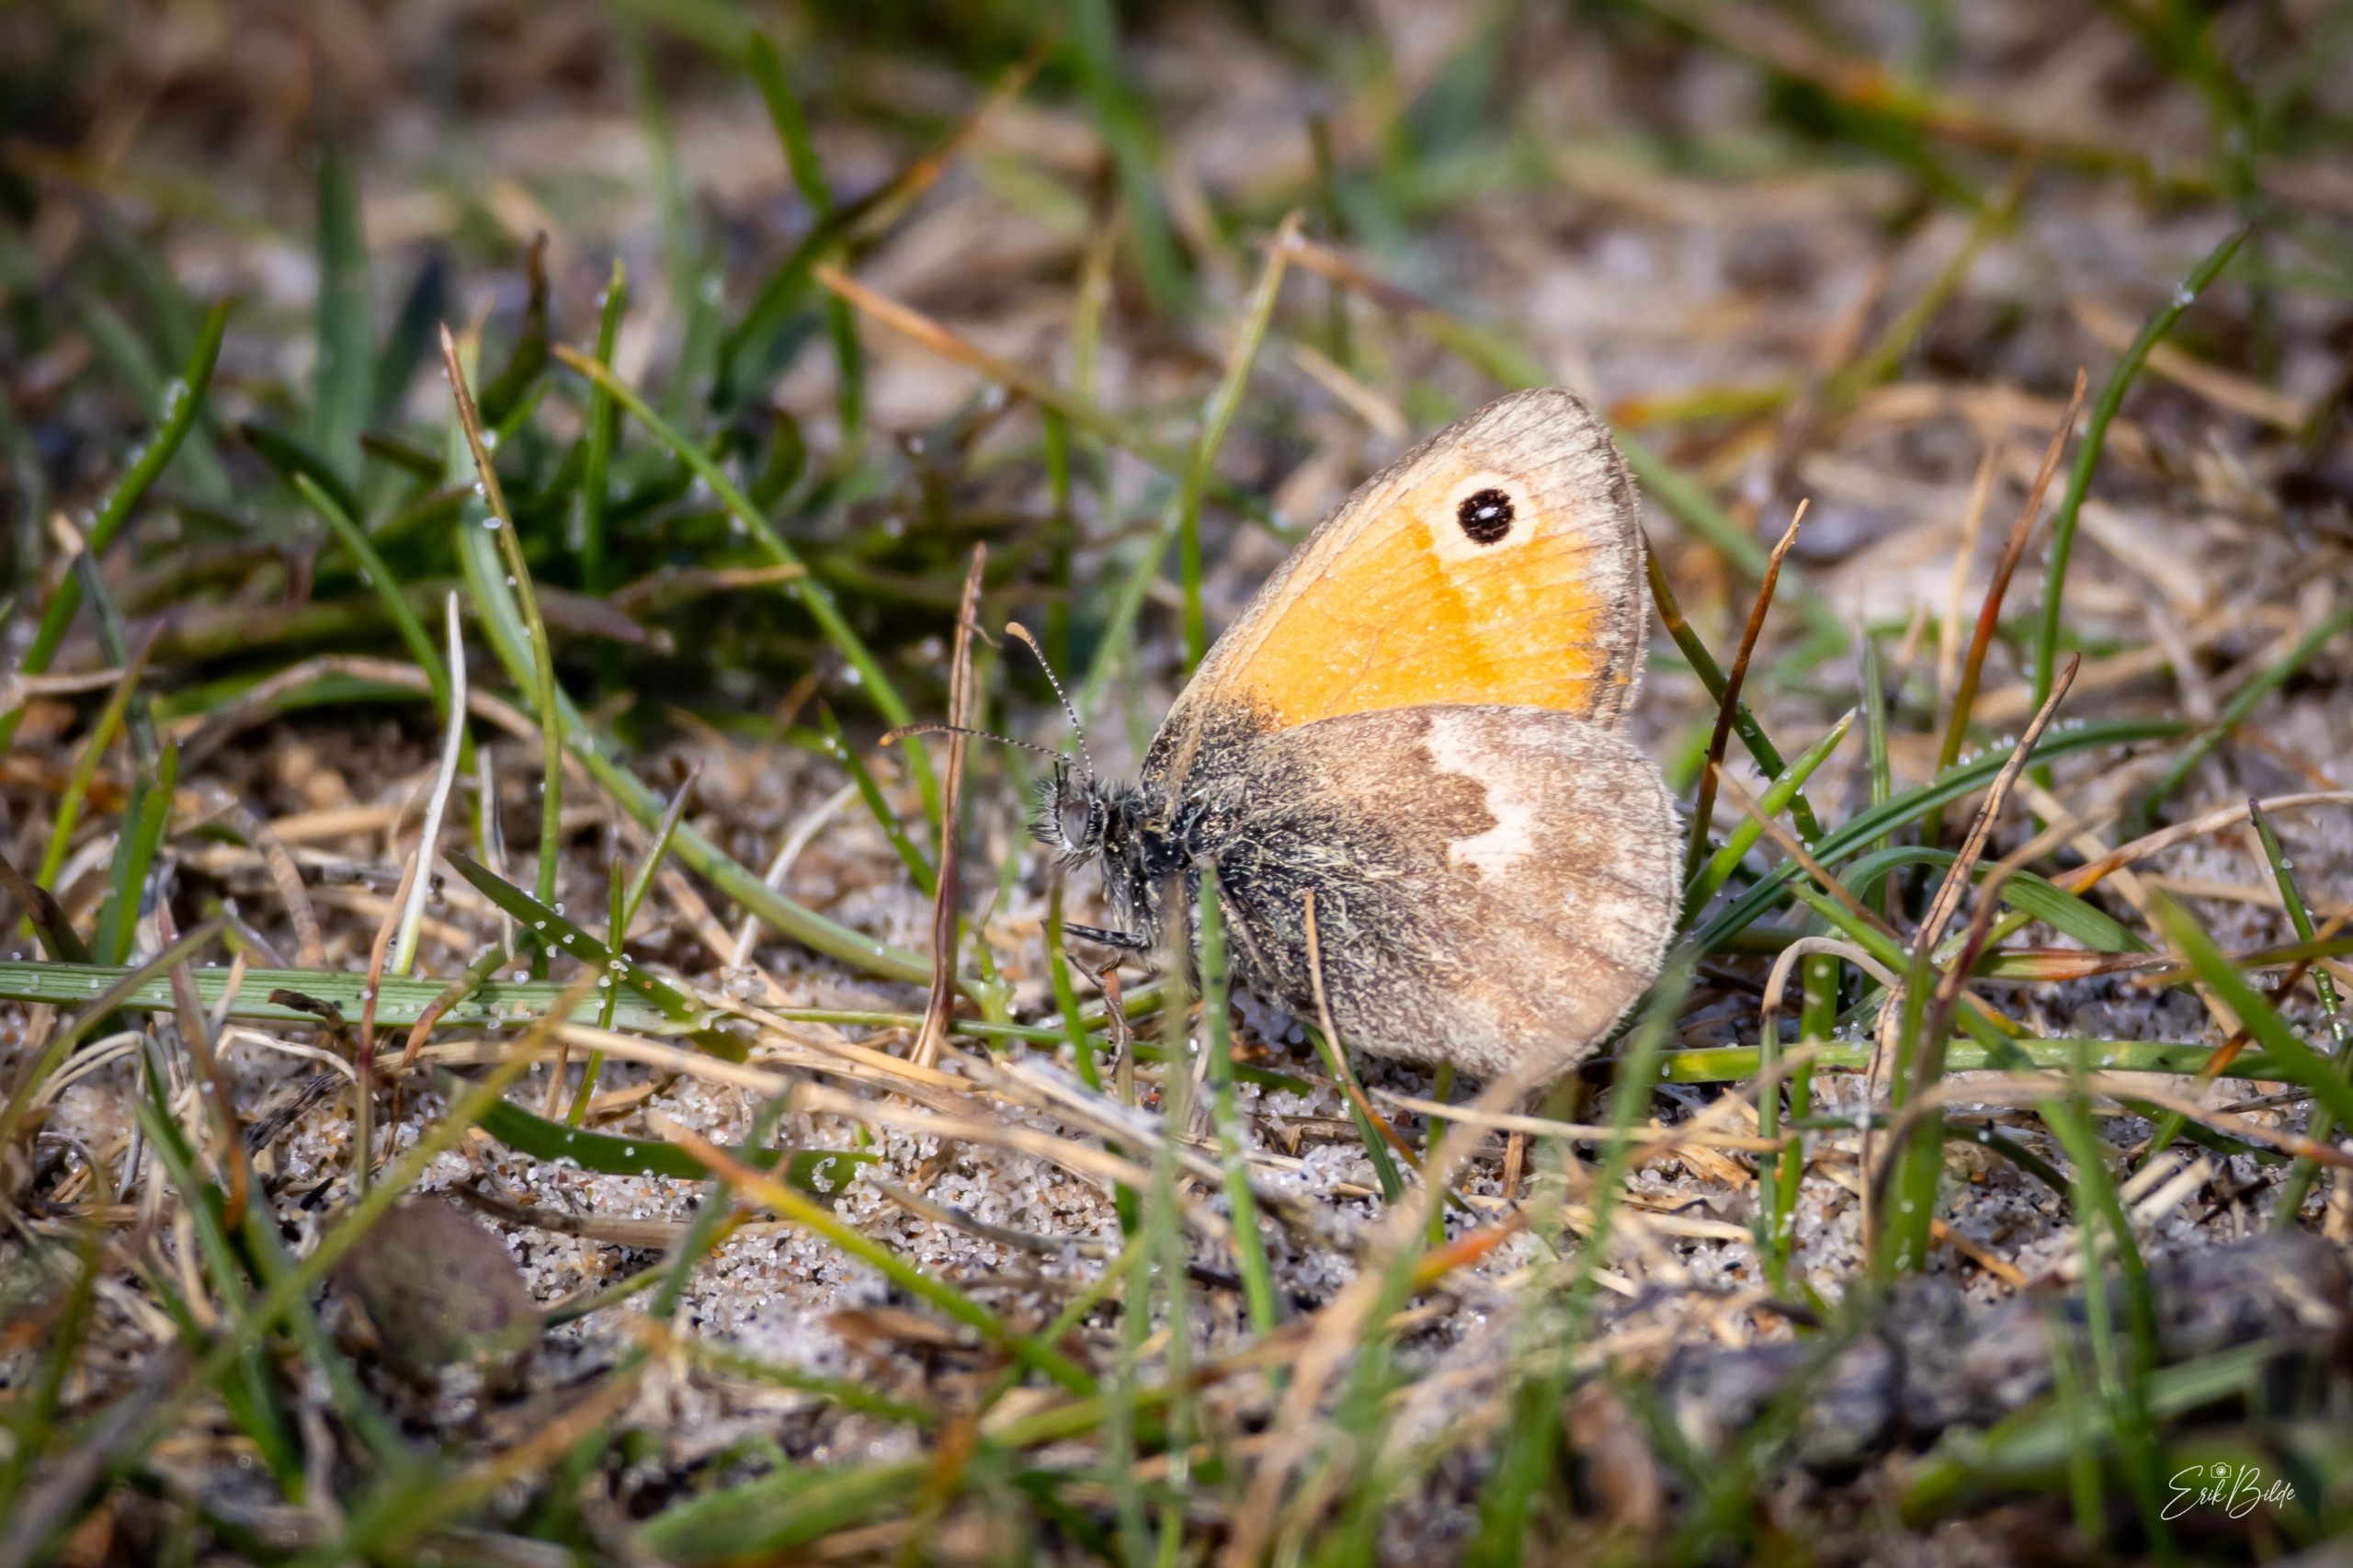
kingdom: Animalia
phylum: Arthropoda
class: Insecta
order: Lepidoptera
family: Nymphalidae
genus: Coenonympha
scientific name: Coenonympha pamphilus
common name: Okkergul randøje
